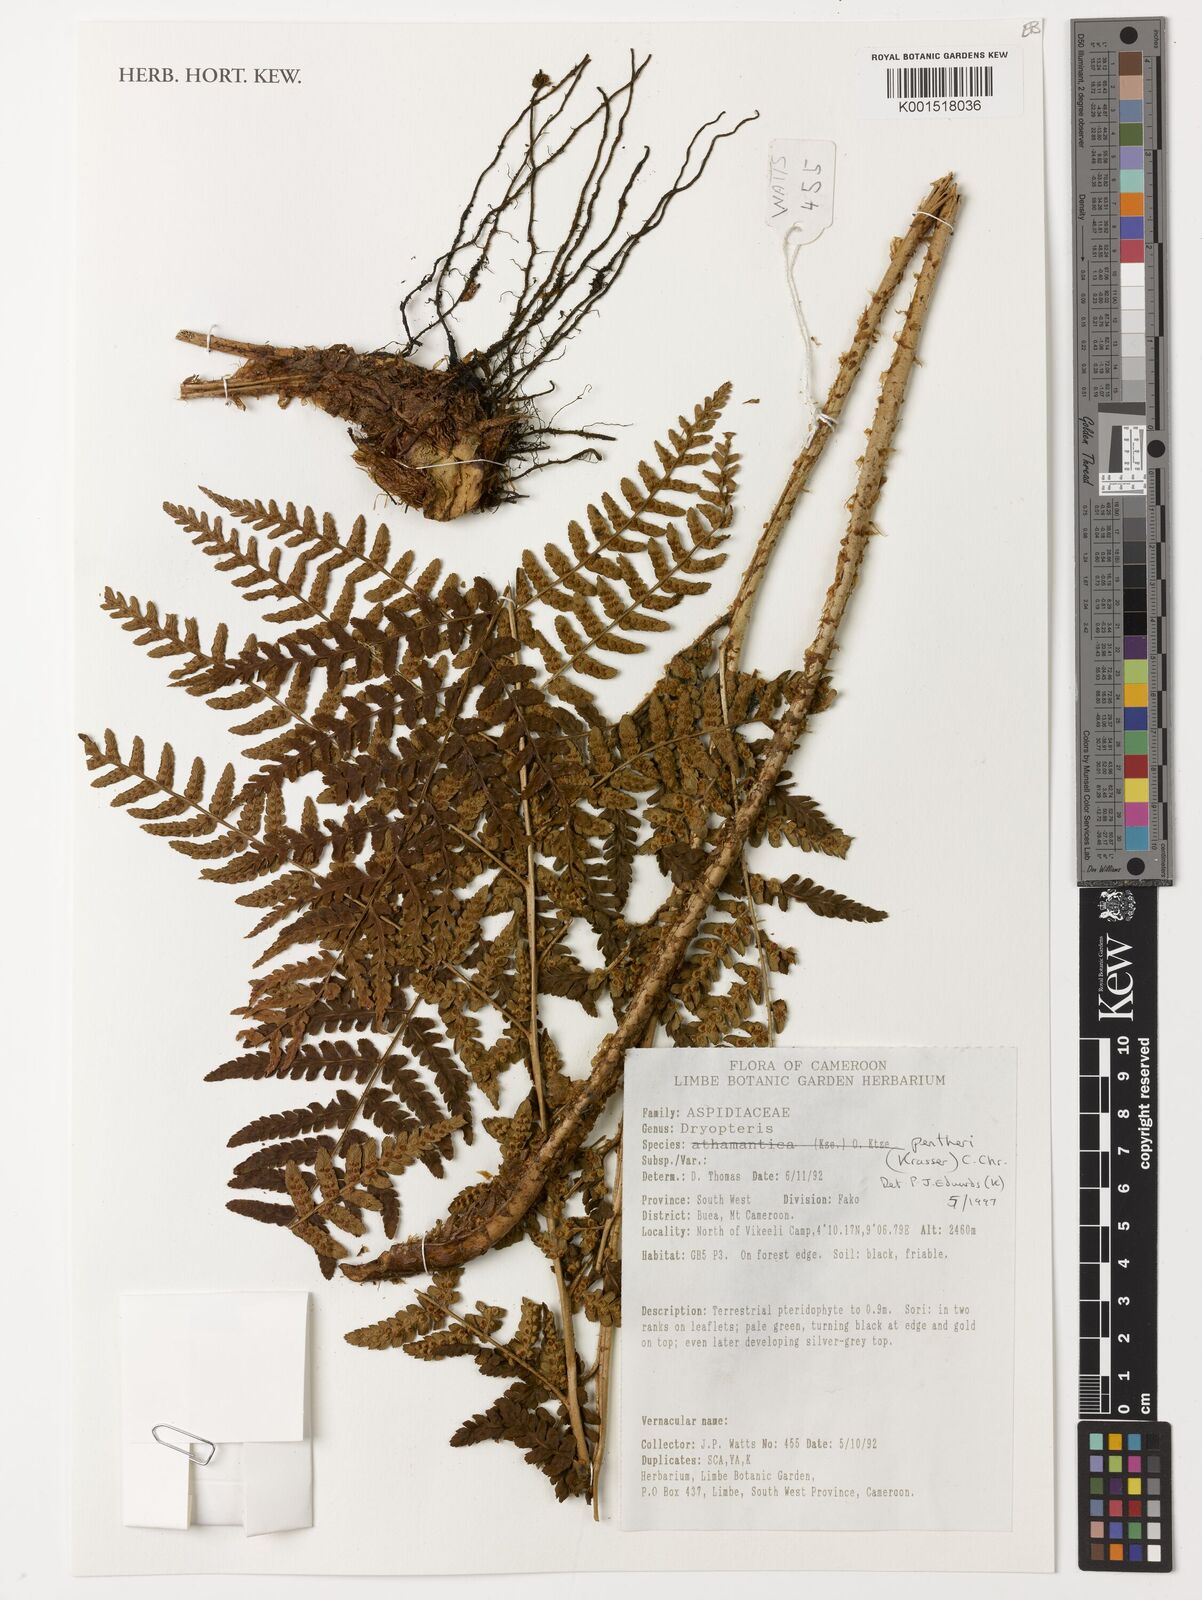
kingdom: Plantae
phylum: Tracheophyta
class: Polypodiopsida
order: Polypodiales
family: Dryopteridaceae
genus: Dryopteris
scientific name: Dryopteris pentheri
